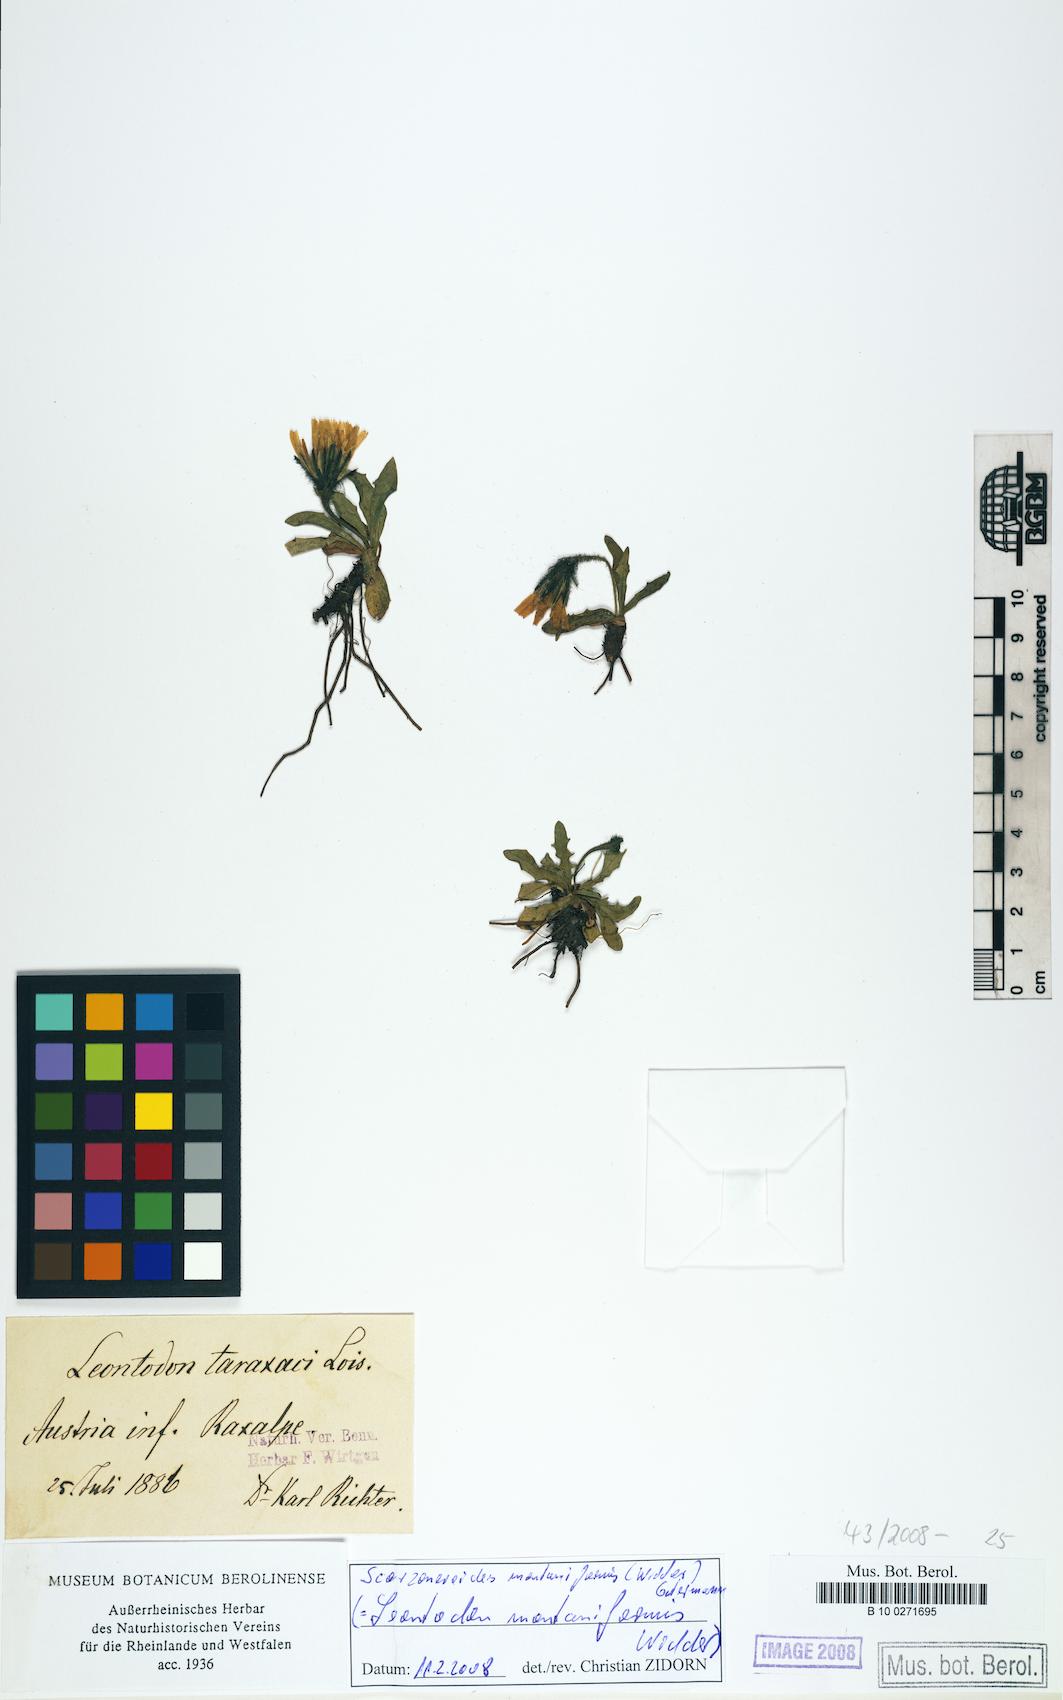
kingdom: Plantae
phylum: Tracheophyta
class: Magnoliopsida
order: Asterales
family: Asteraceae
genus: Scorzoneroides
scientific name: Scorzoneroides montana
